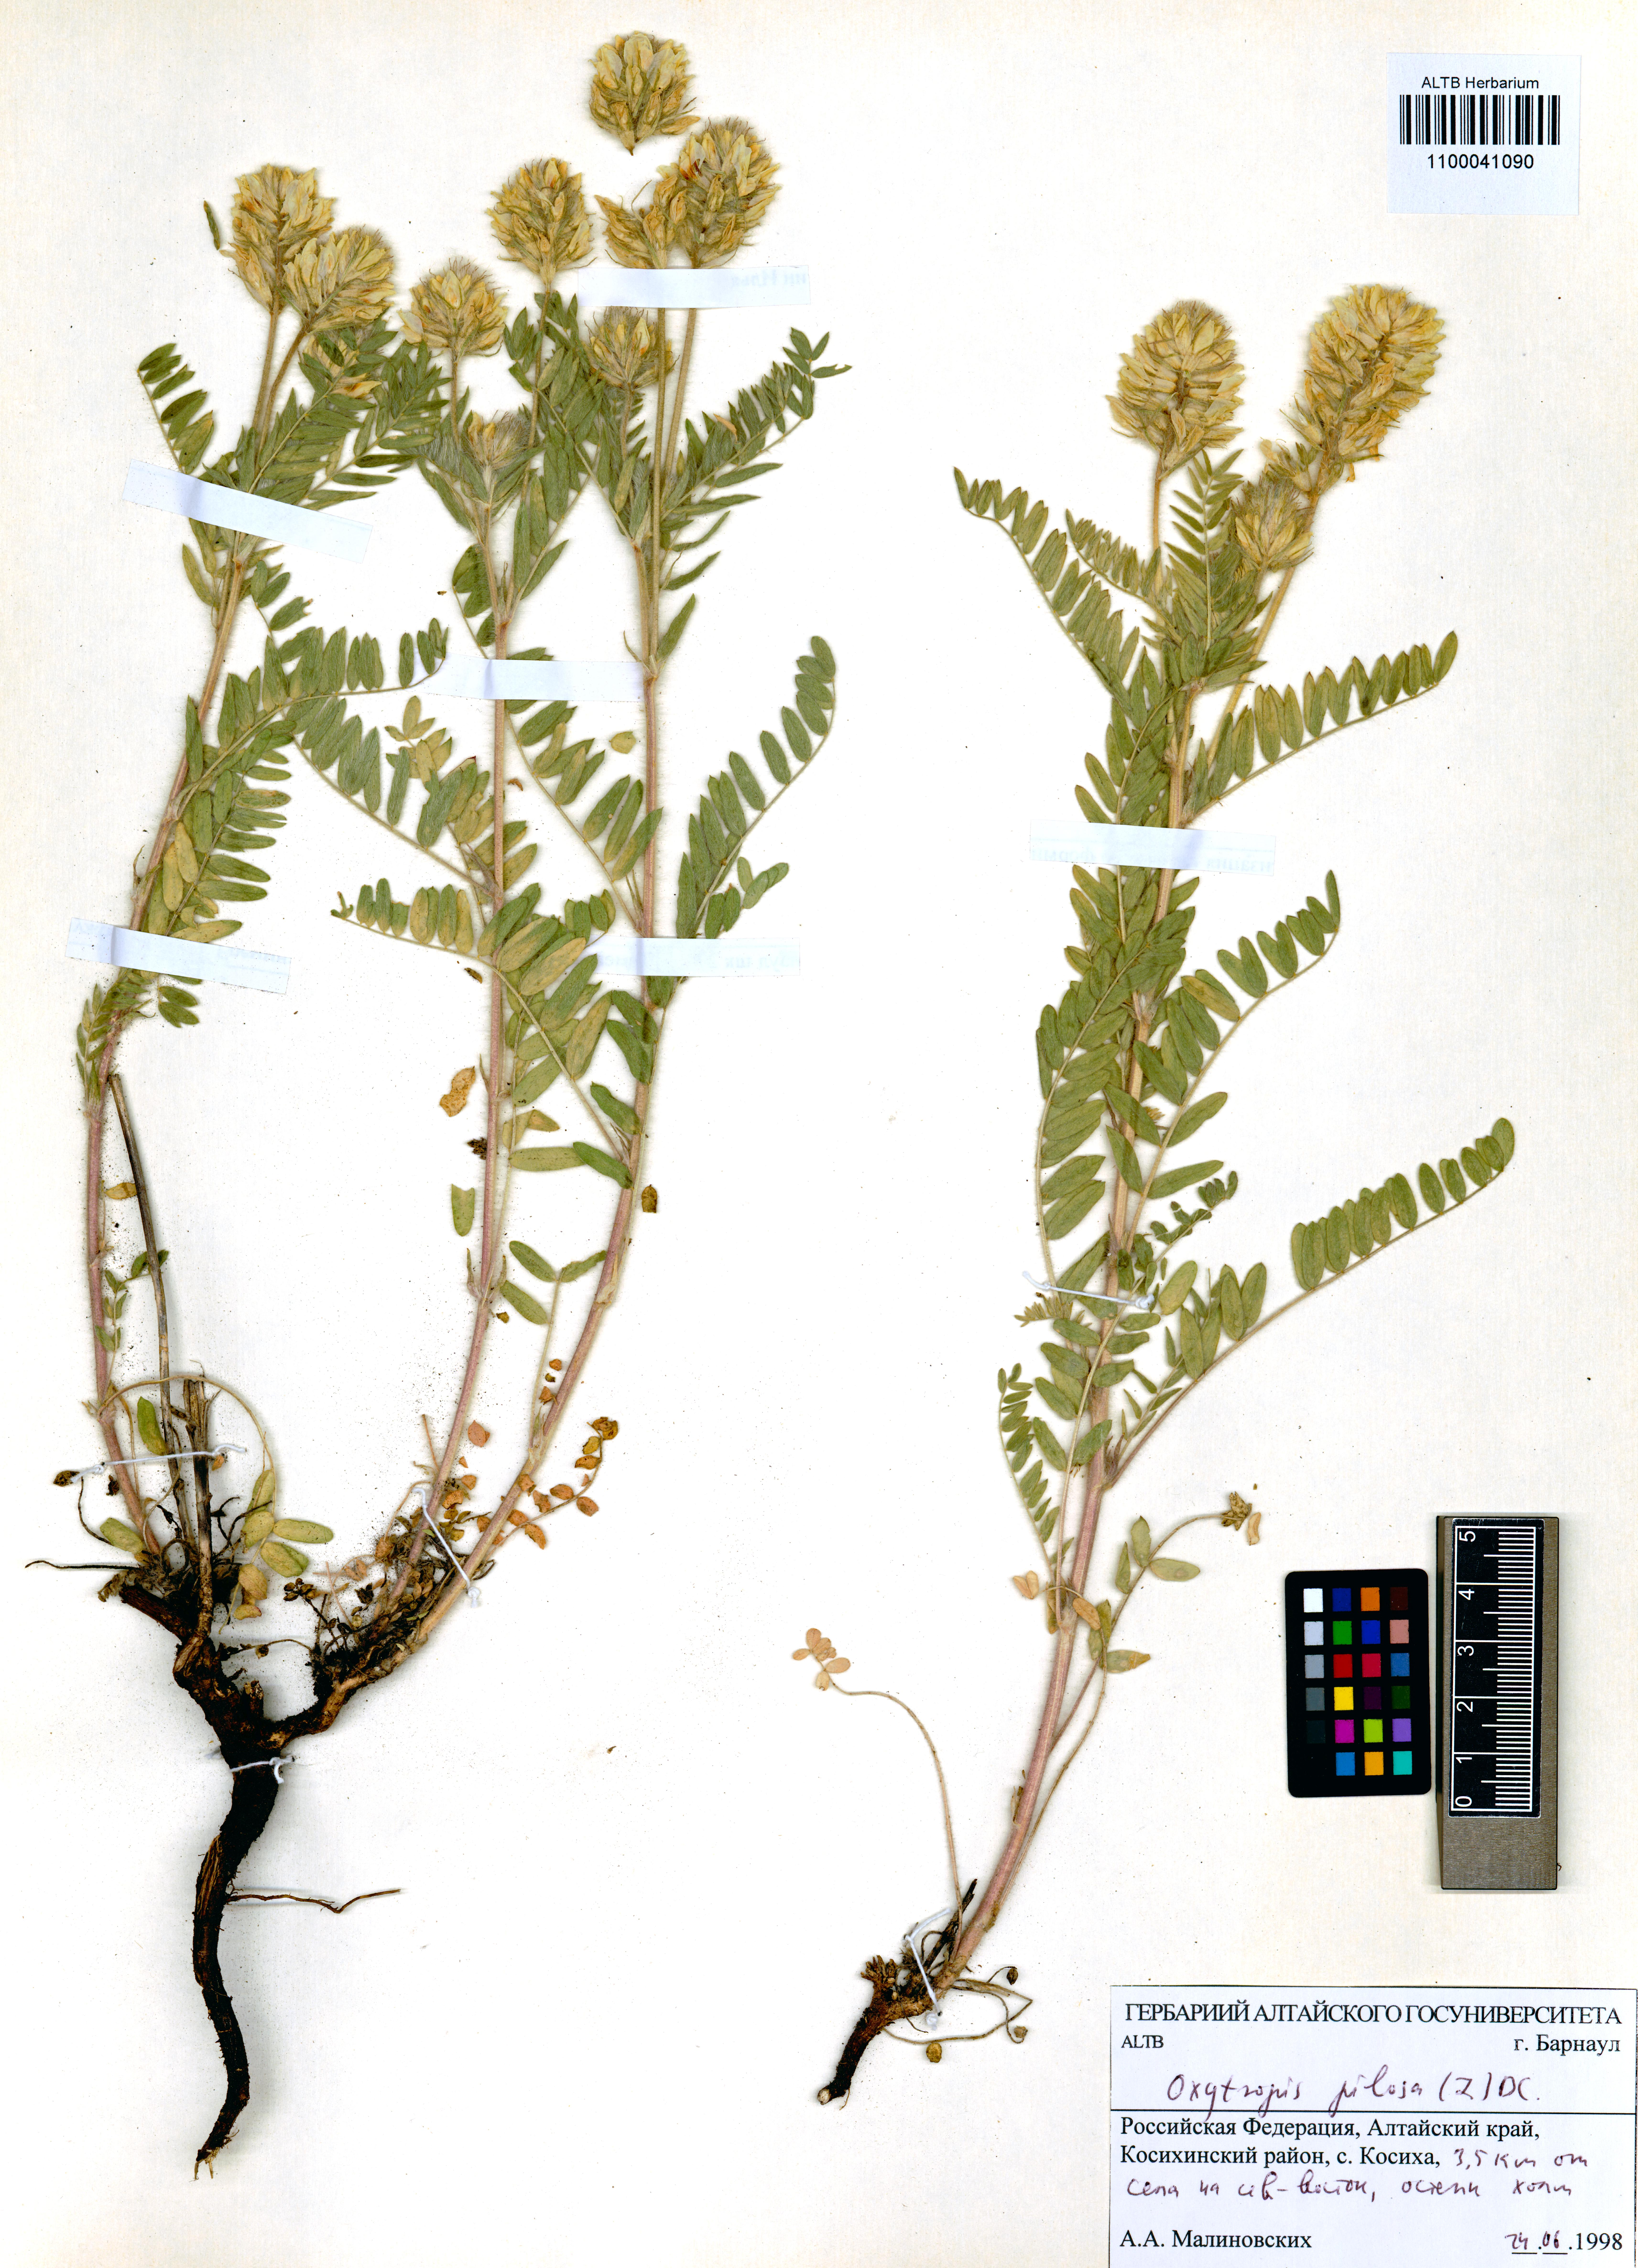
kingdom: Plantae
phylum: Tracheophyta
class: Magnoliopsida
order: Fabales
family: Fabaceae
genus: Oxytropis
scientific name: Oxytropis pilosa
